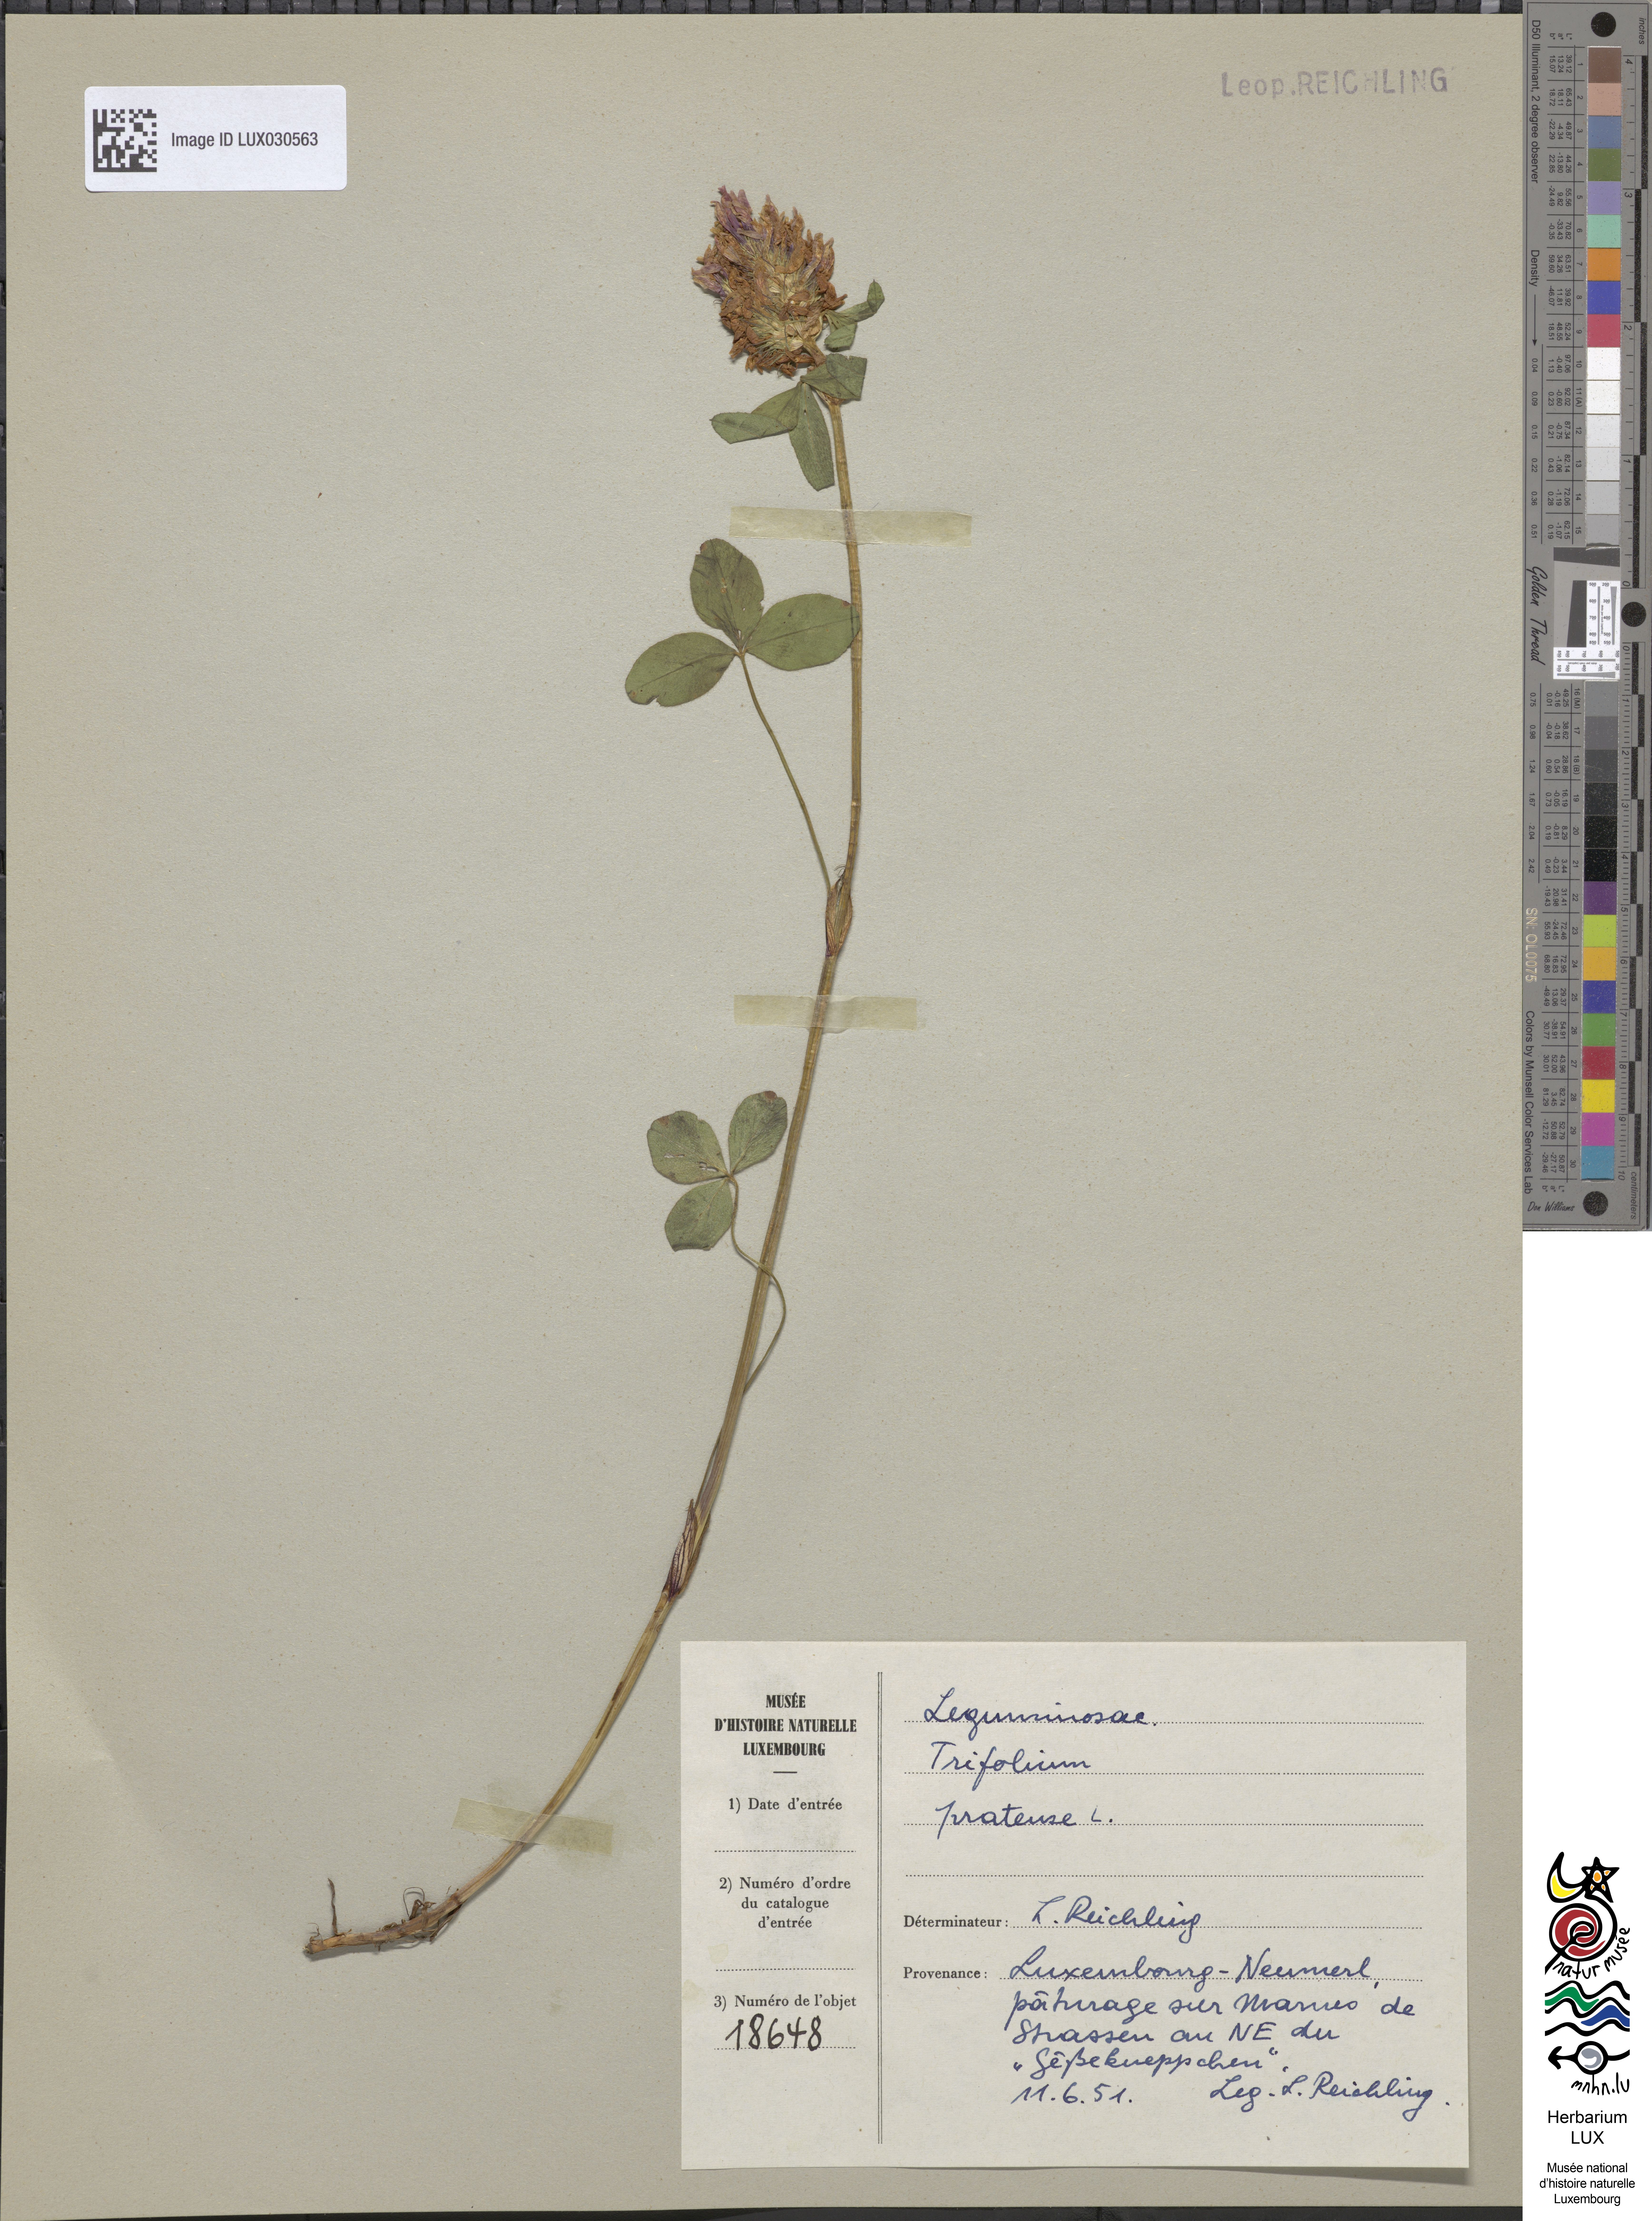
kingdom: Plantae
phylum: Tracheophyta
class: Magnoliopsida
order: Fabales
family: Fabaceae
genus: Trifolium
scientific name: Trifolium pratense
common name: Red clover
